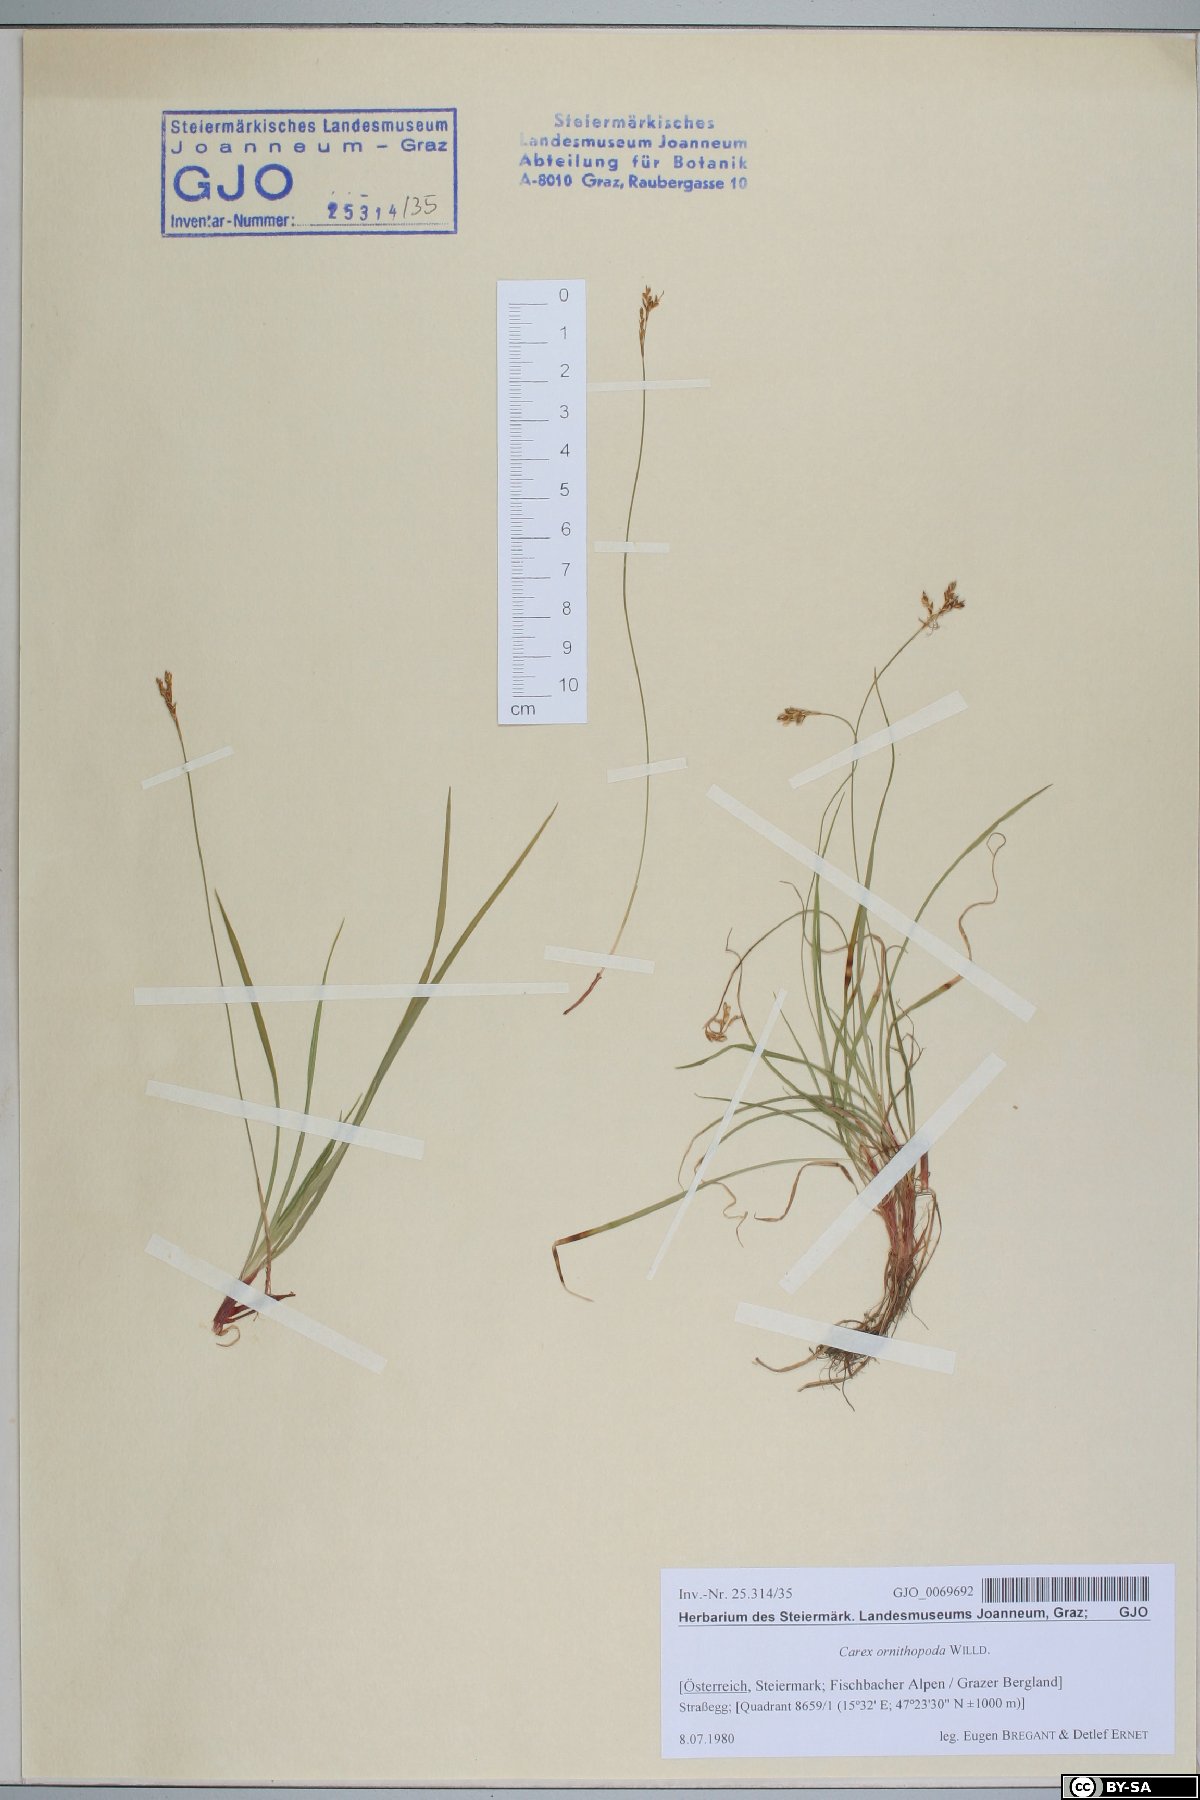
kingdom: Plantae
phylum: Tracheophyta
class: Liliopsida
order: Poales
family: Cyperaceae
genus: Carex
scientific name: Carex ornithopoda
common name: Bird's-foot sedge
